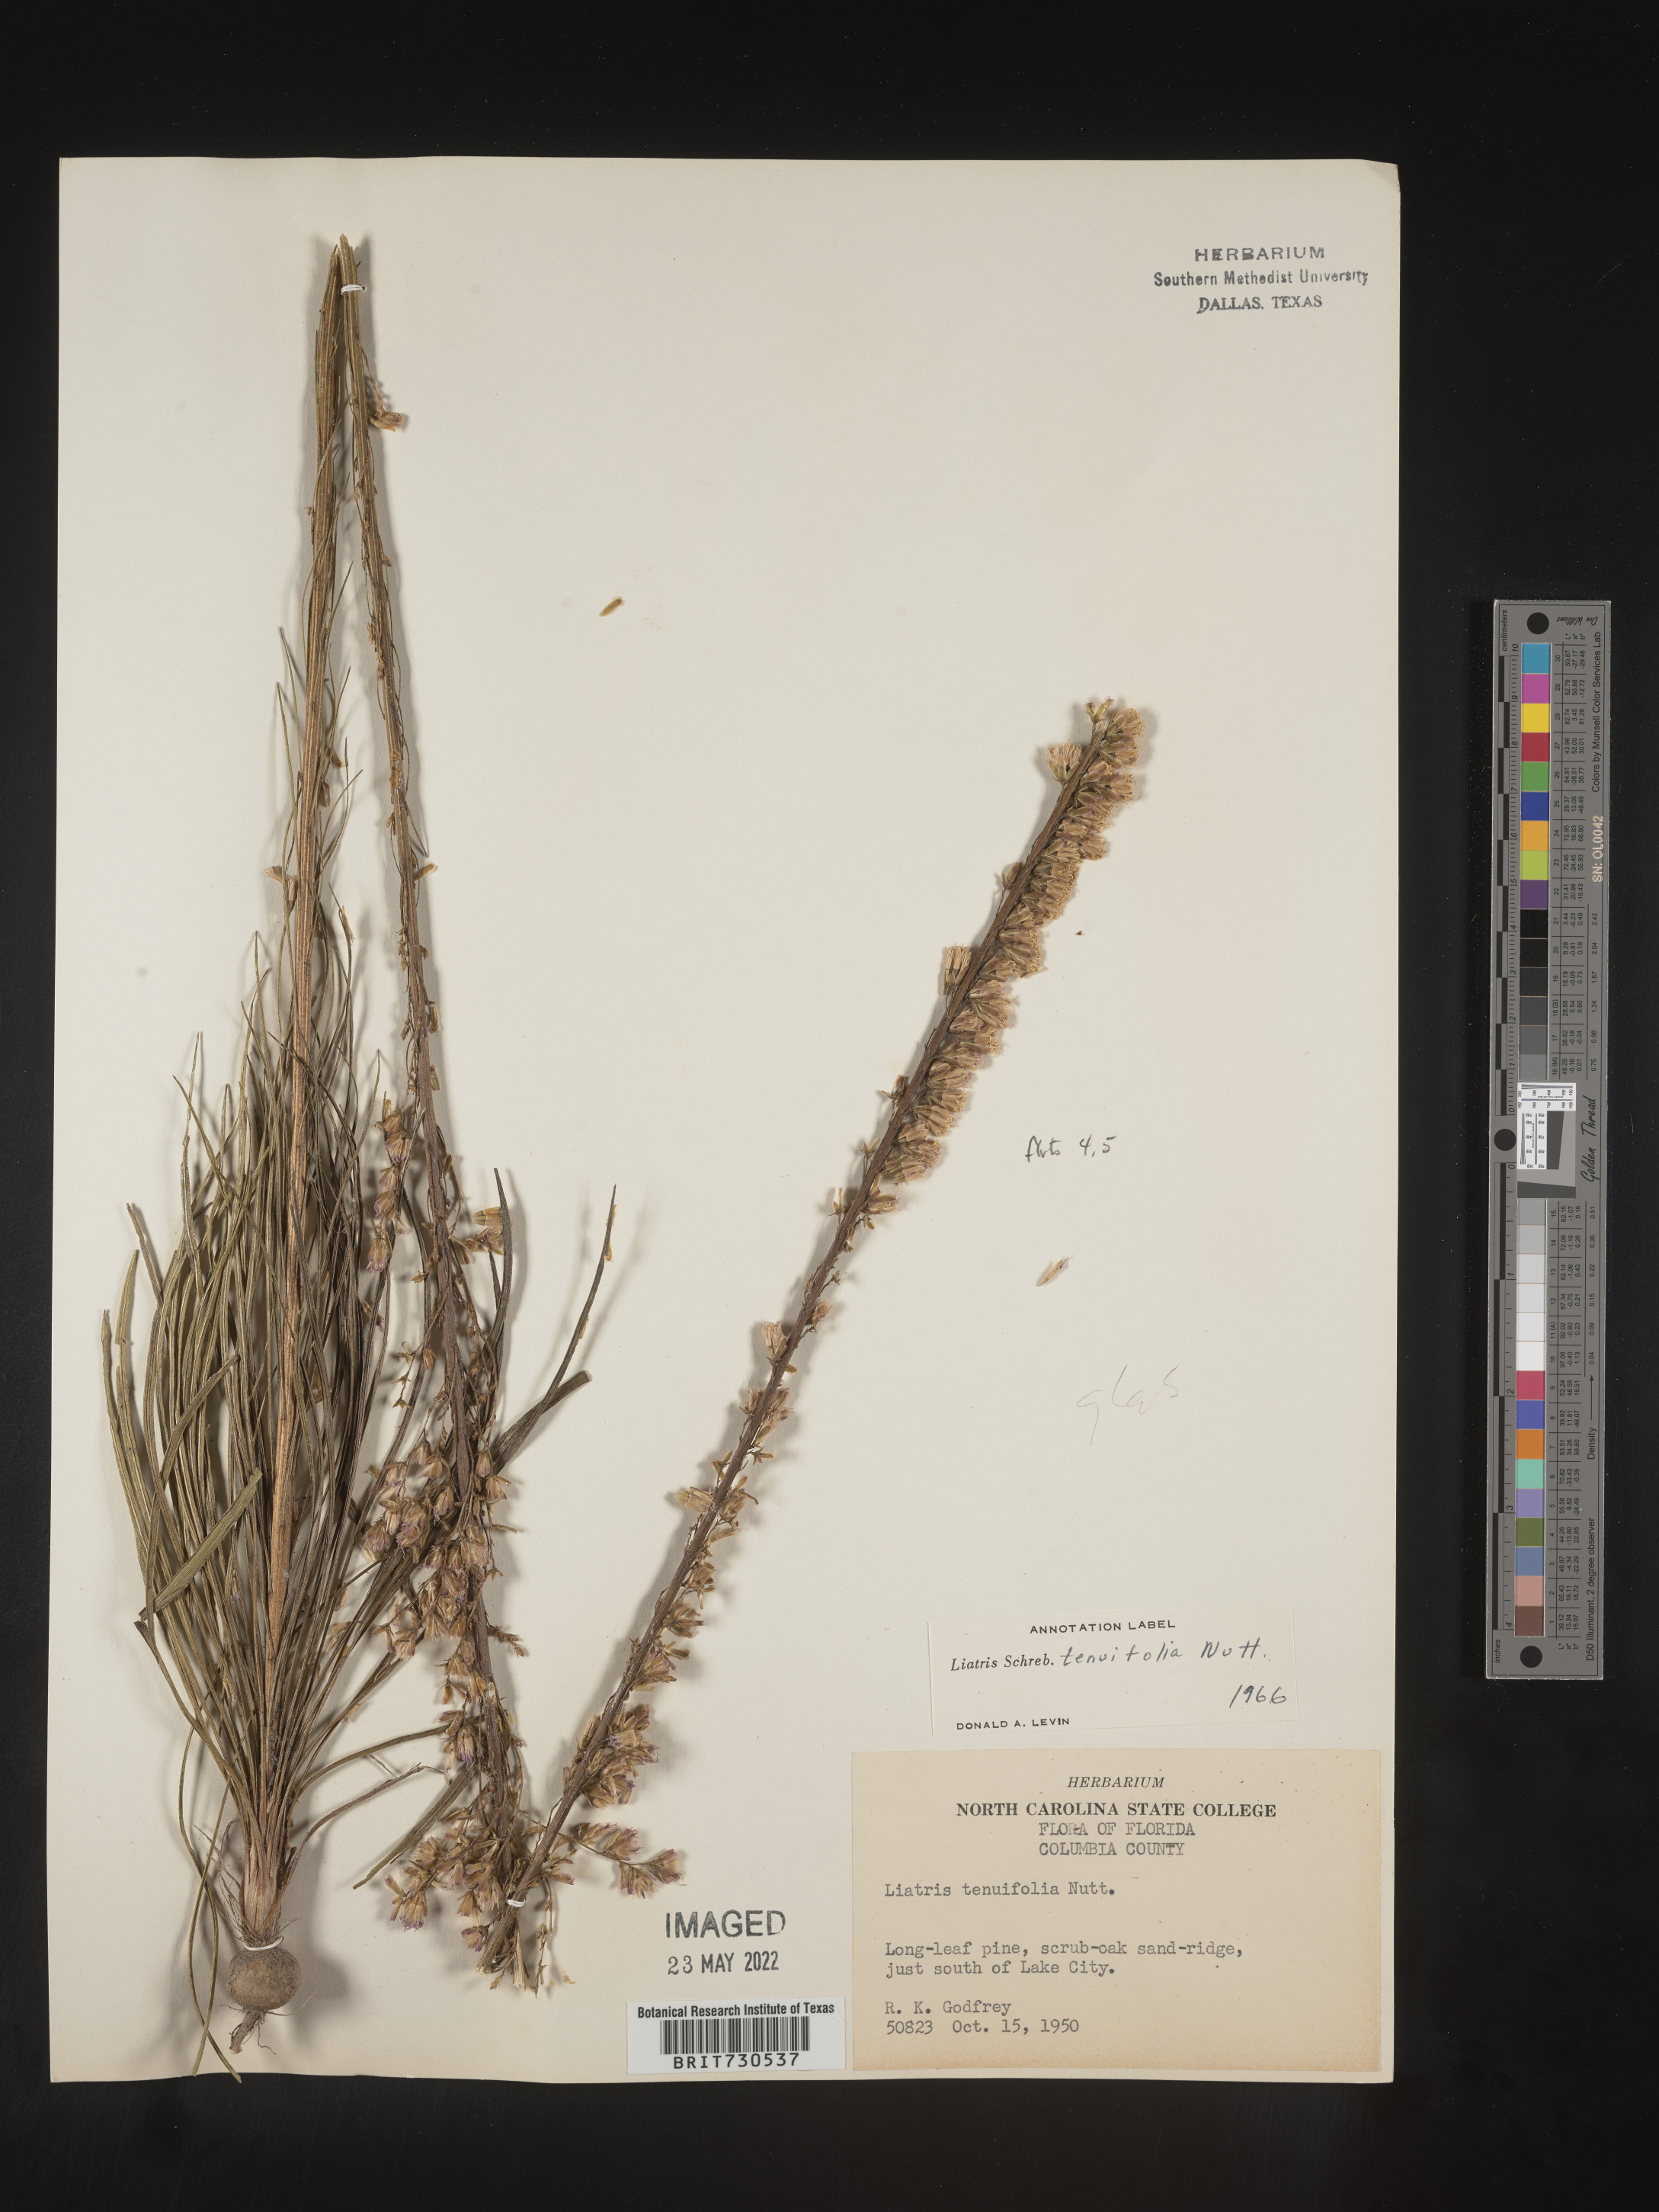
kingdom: Plantae
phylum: Tracheophyta
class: Magnoliopsida
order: Asterales
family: Asteraceae
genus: Liatris
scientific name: Liatris laevigata
